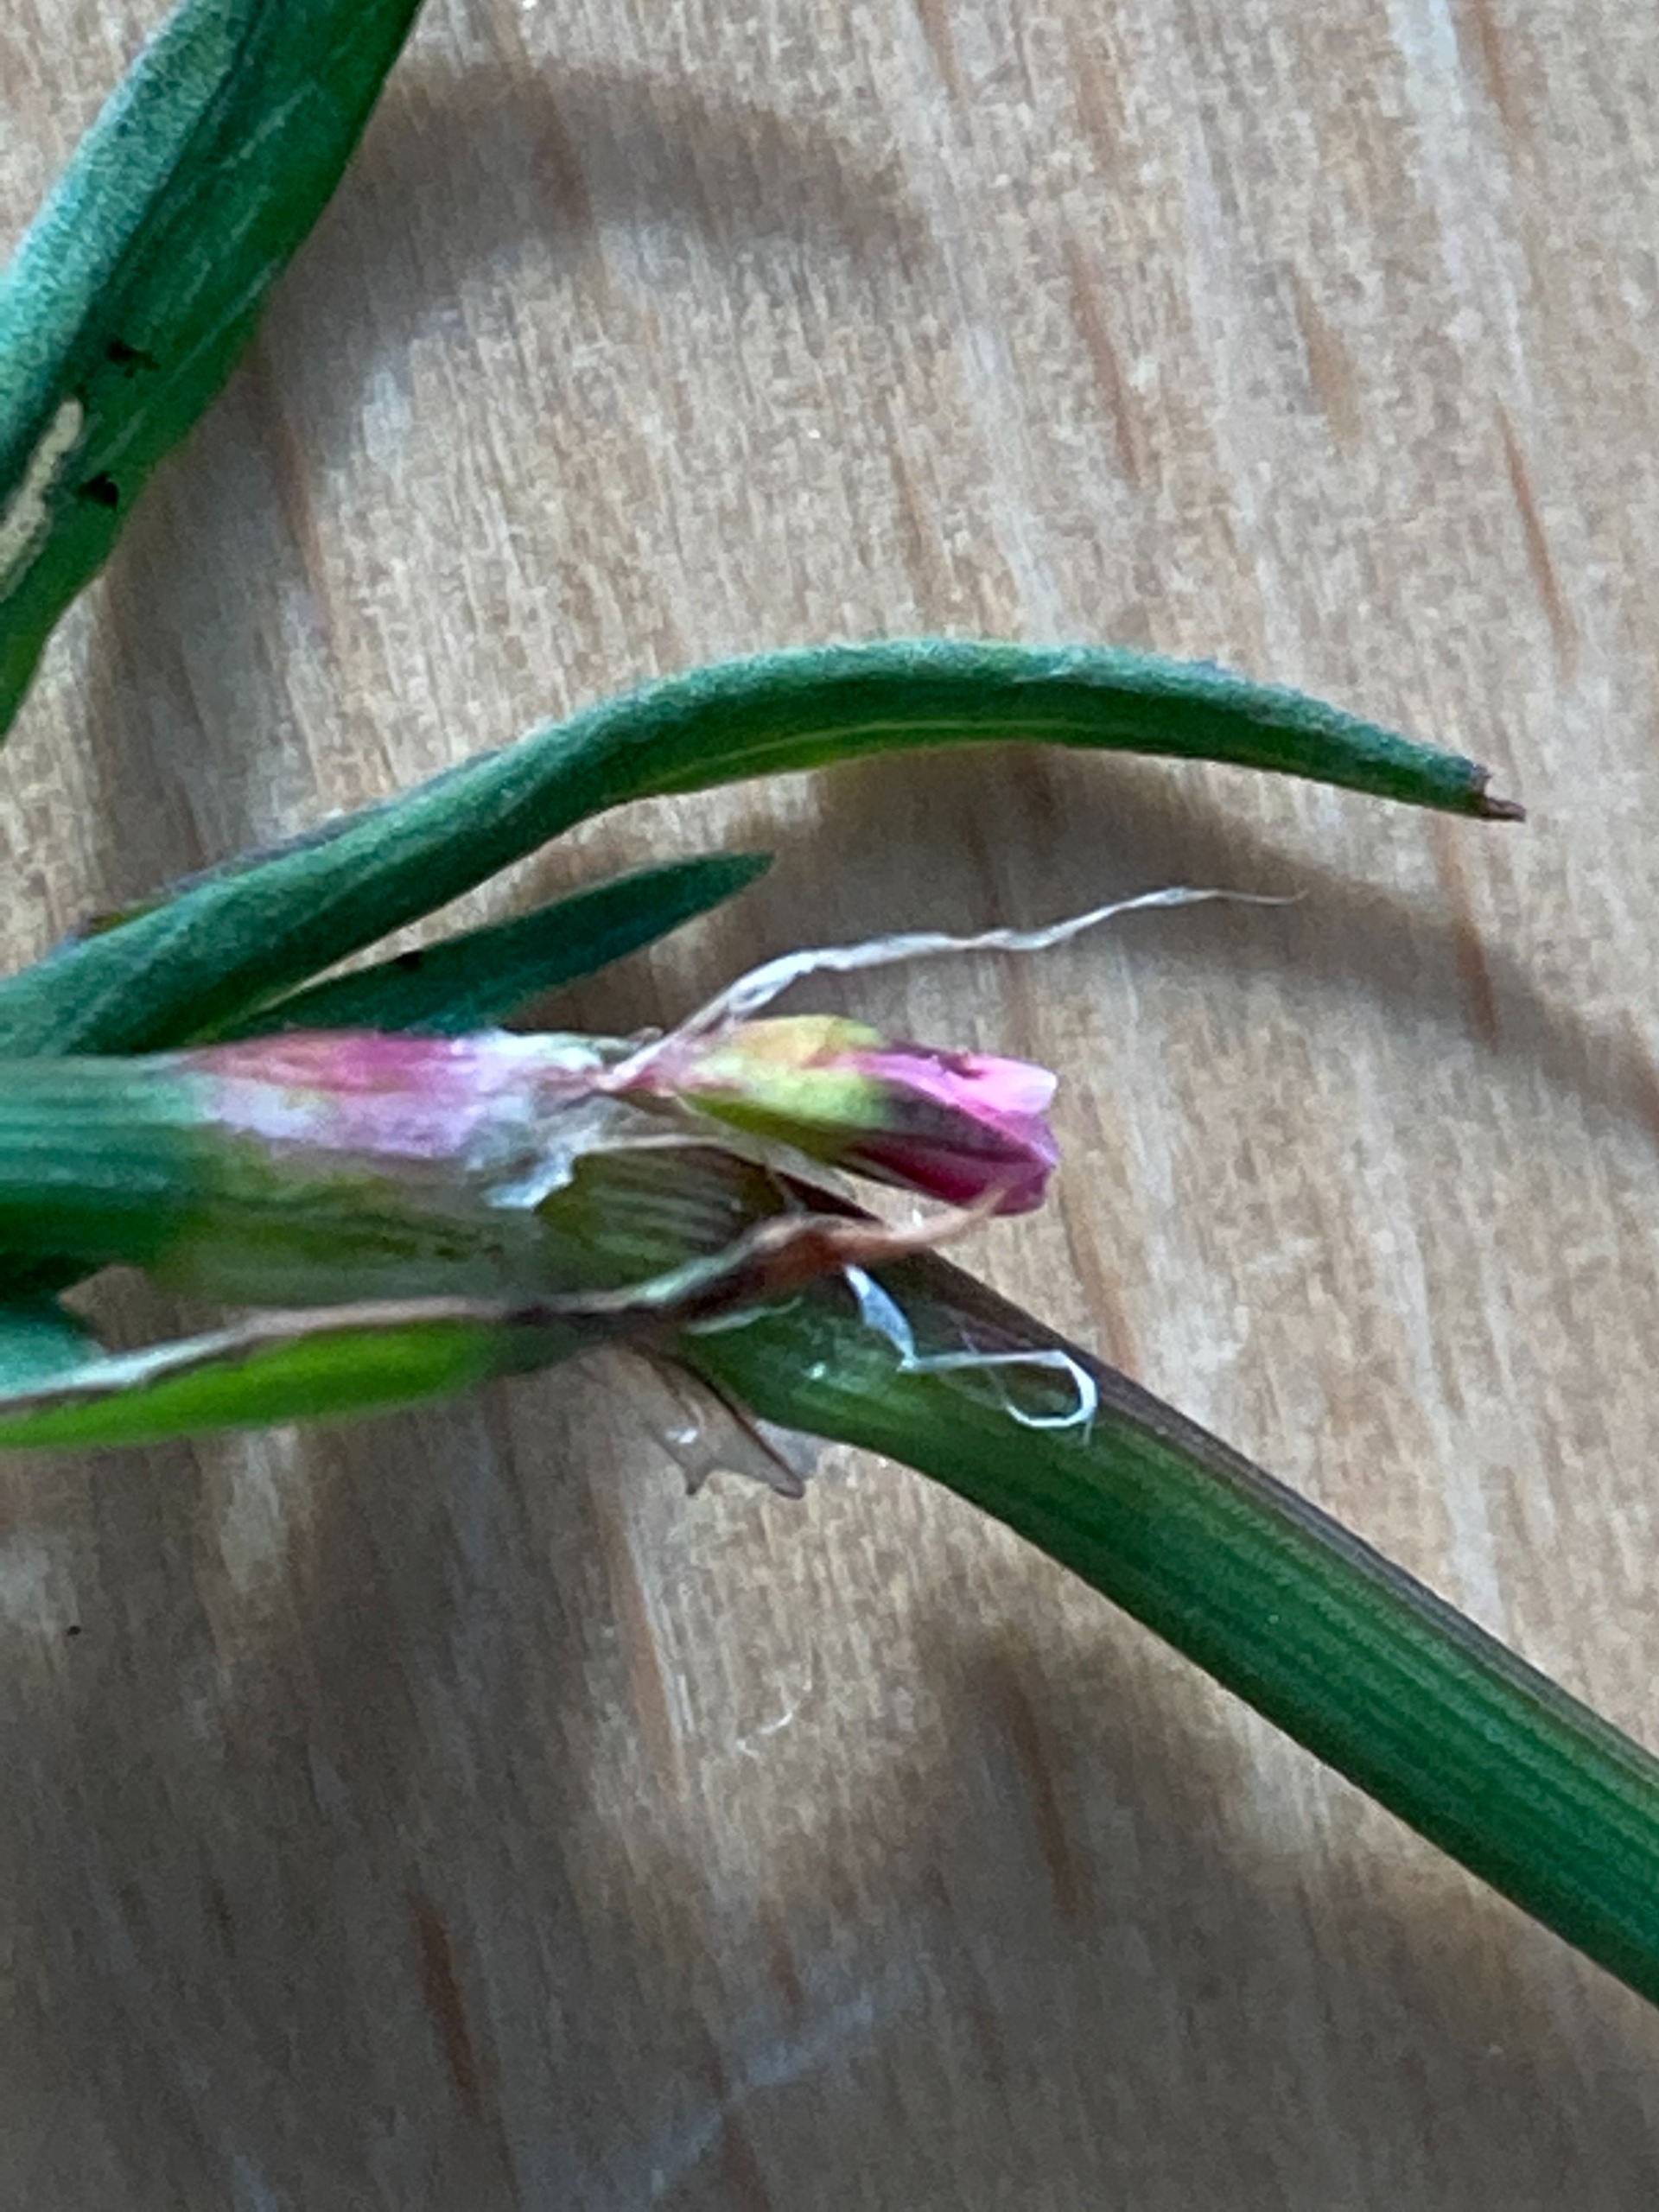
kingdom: Plantae
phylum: Tracheophyta
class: Magnoliopsida
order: Caryophyllales
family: Polygonaceae
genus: Polygonum
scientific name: Polygonum aviculare
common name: Spidsbladet vej-pileurt
